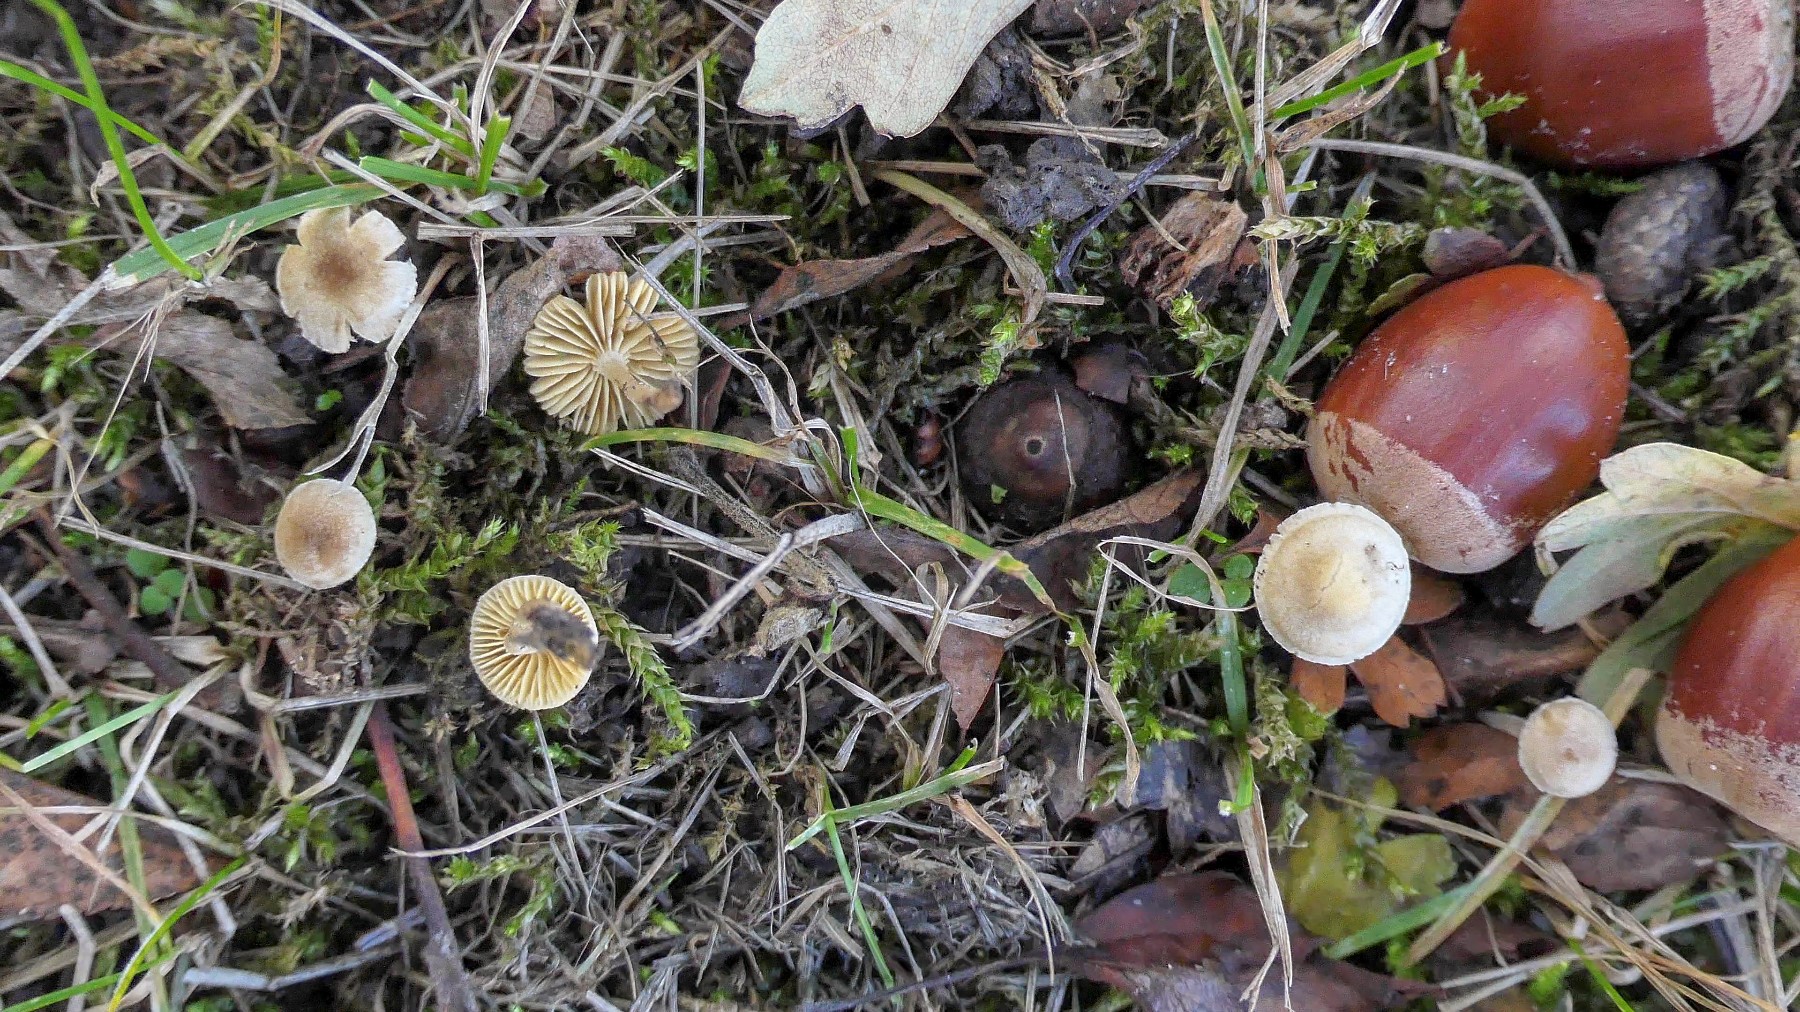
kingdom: Fungi
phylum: Basidiomycota
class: Agaricomycetes
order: Agaricales
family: Tubariaceae
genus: Tubaria
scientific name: Tubaria dispersa
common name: tjørne-fnughat
